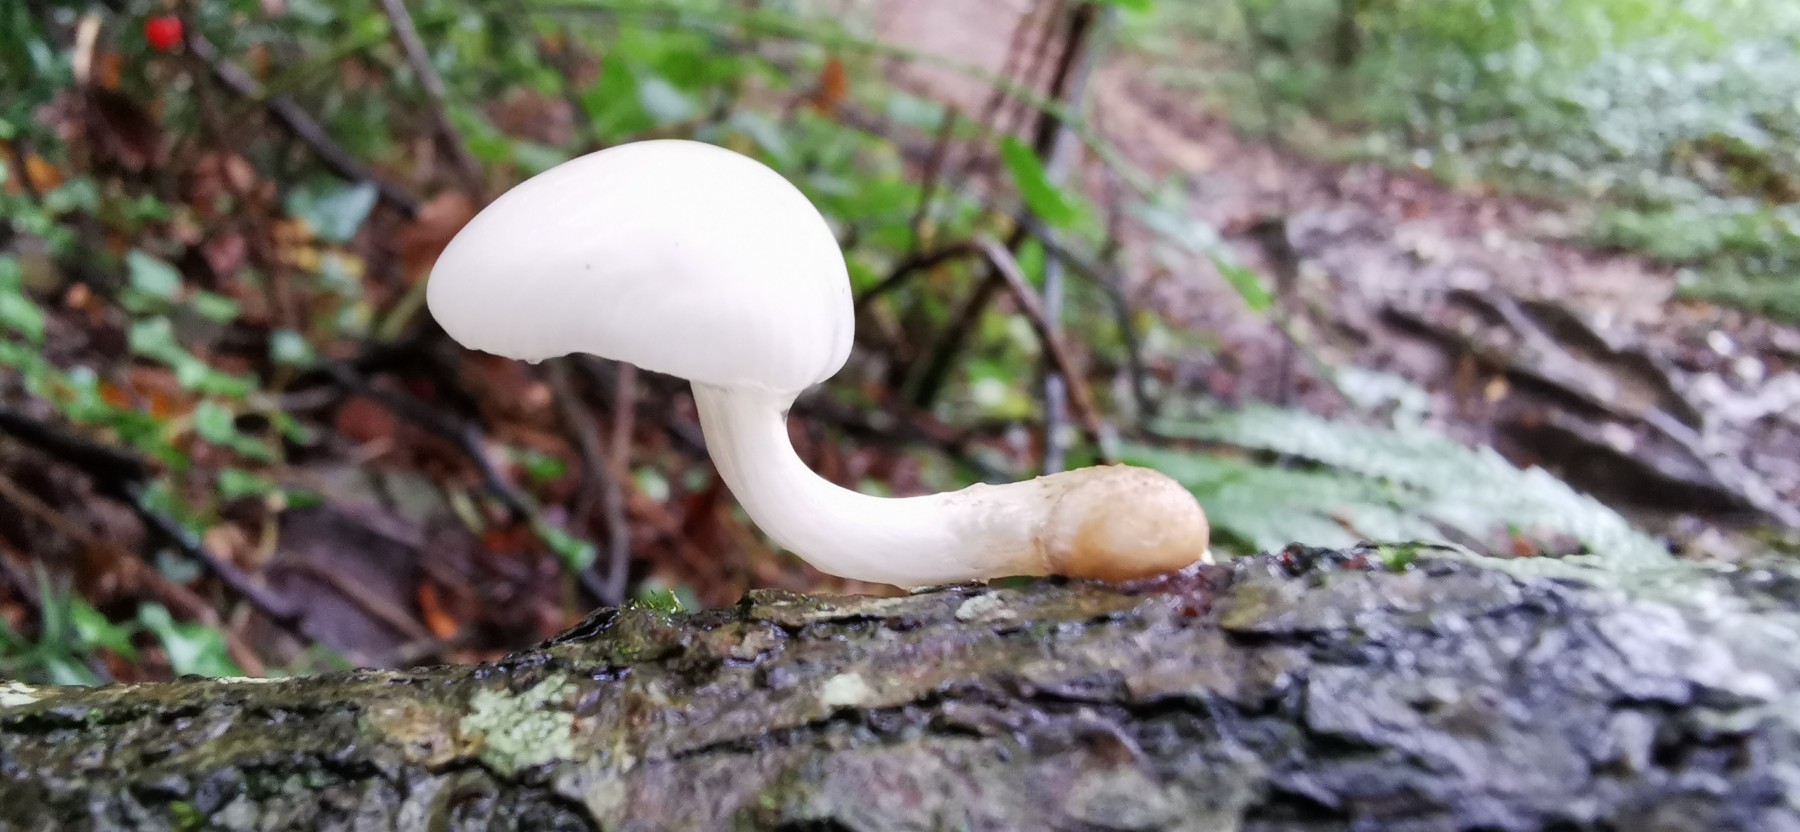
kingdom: Fungi
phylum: Basidiomycota
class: Agaricomycetes
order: Agaricales
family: Physalacriaceae
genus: Mucidula
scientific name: Mucidula mucida
